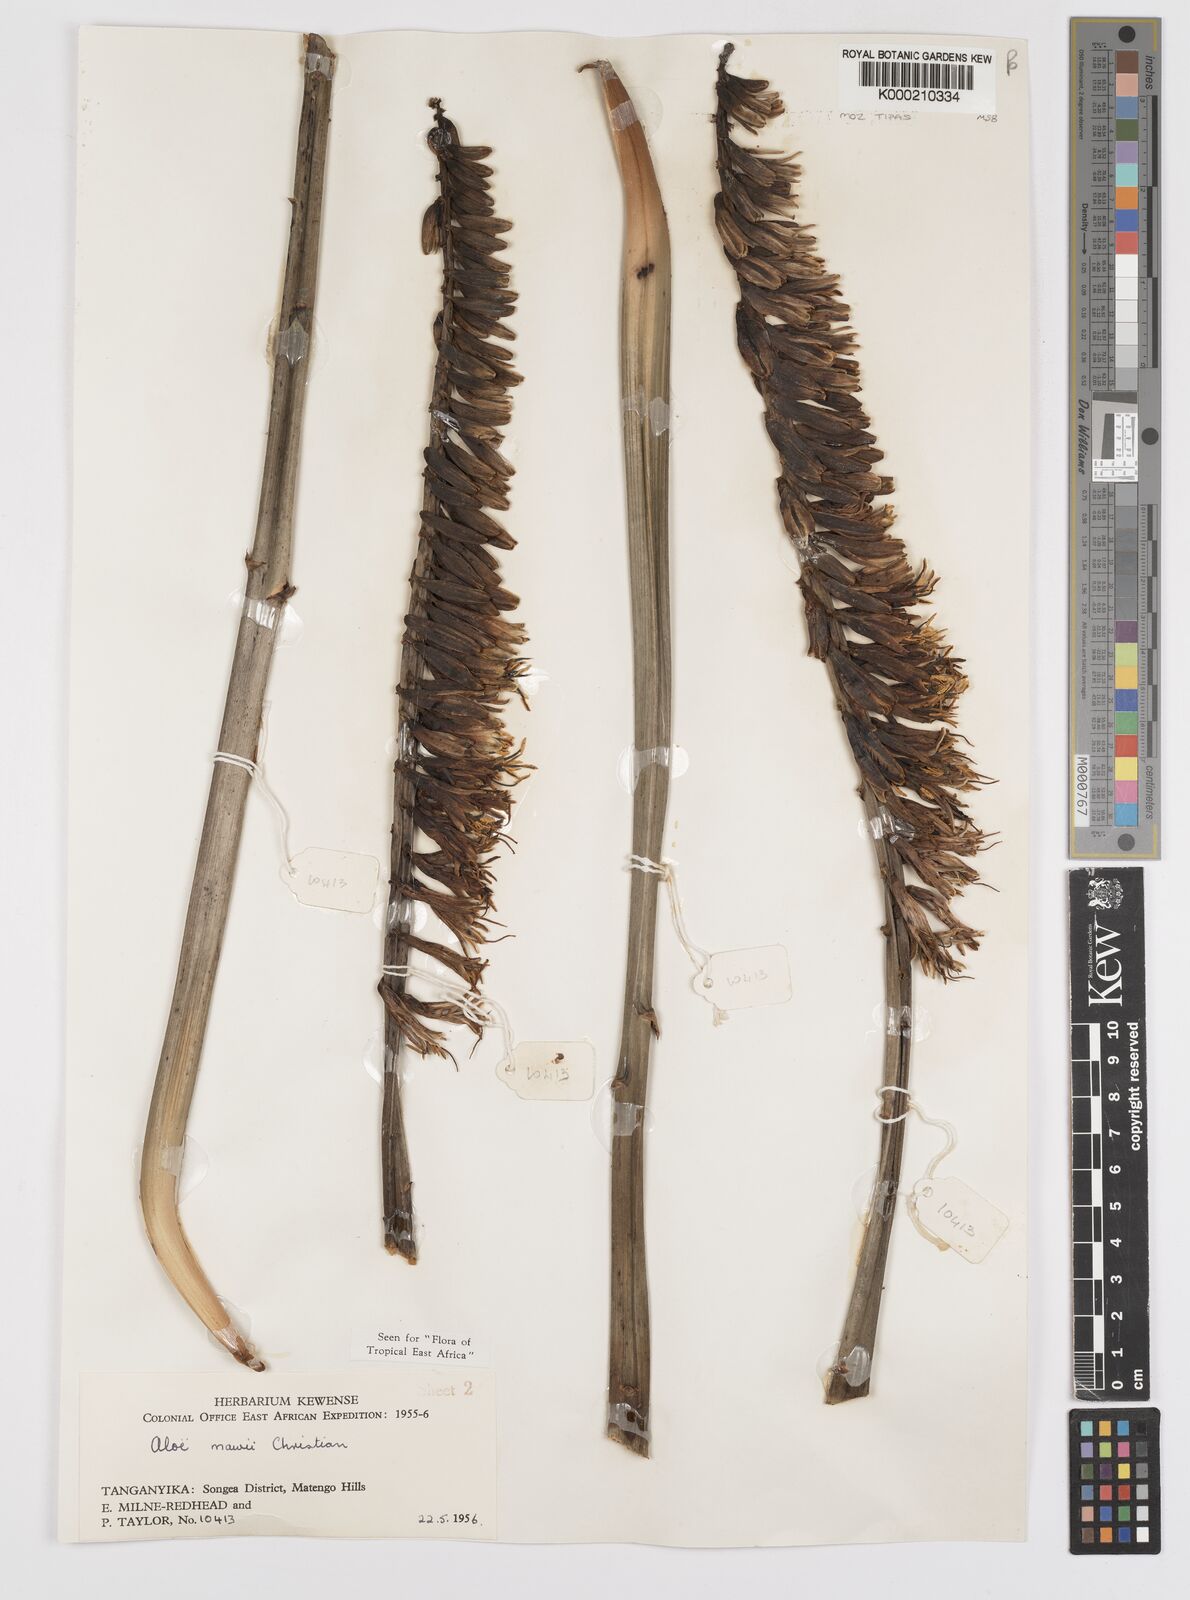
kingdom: Plantae
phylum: Tracheophyta
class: Liliopsida
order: Asparagales
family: Asphodelaceae
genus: Aloe
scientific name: Aloe mawii
